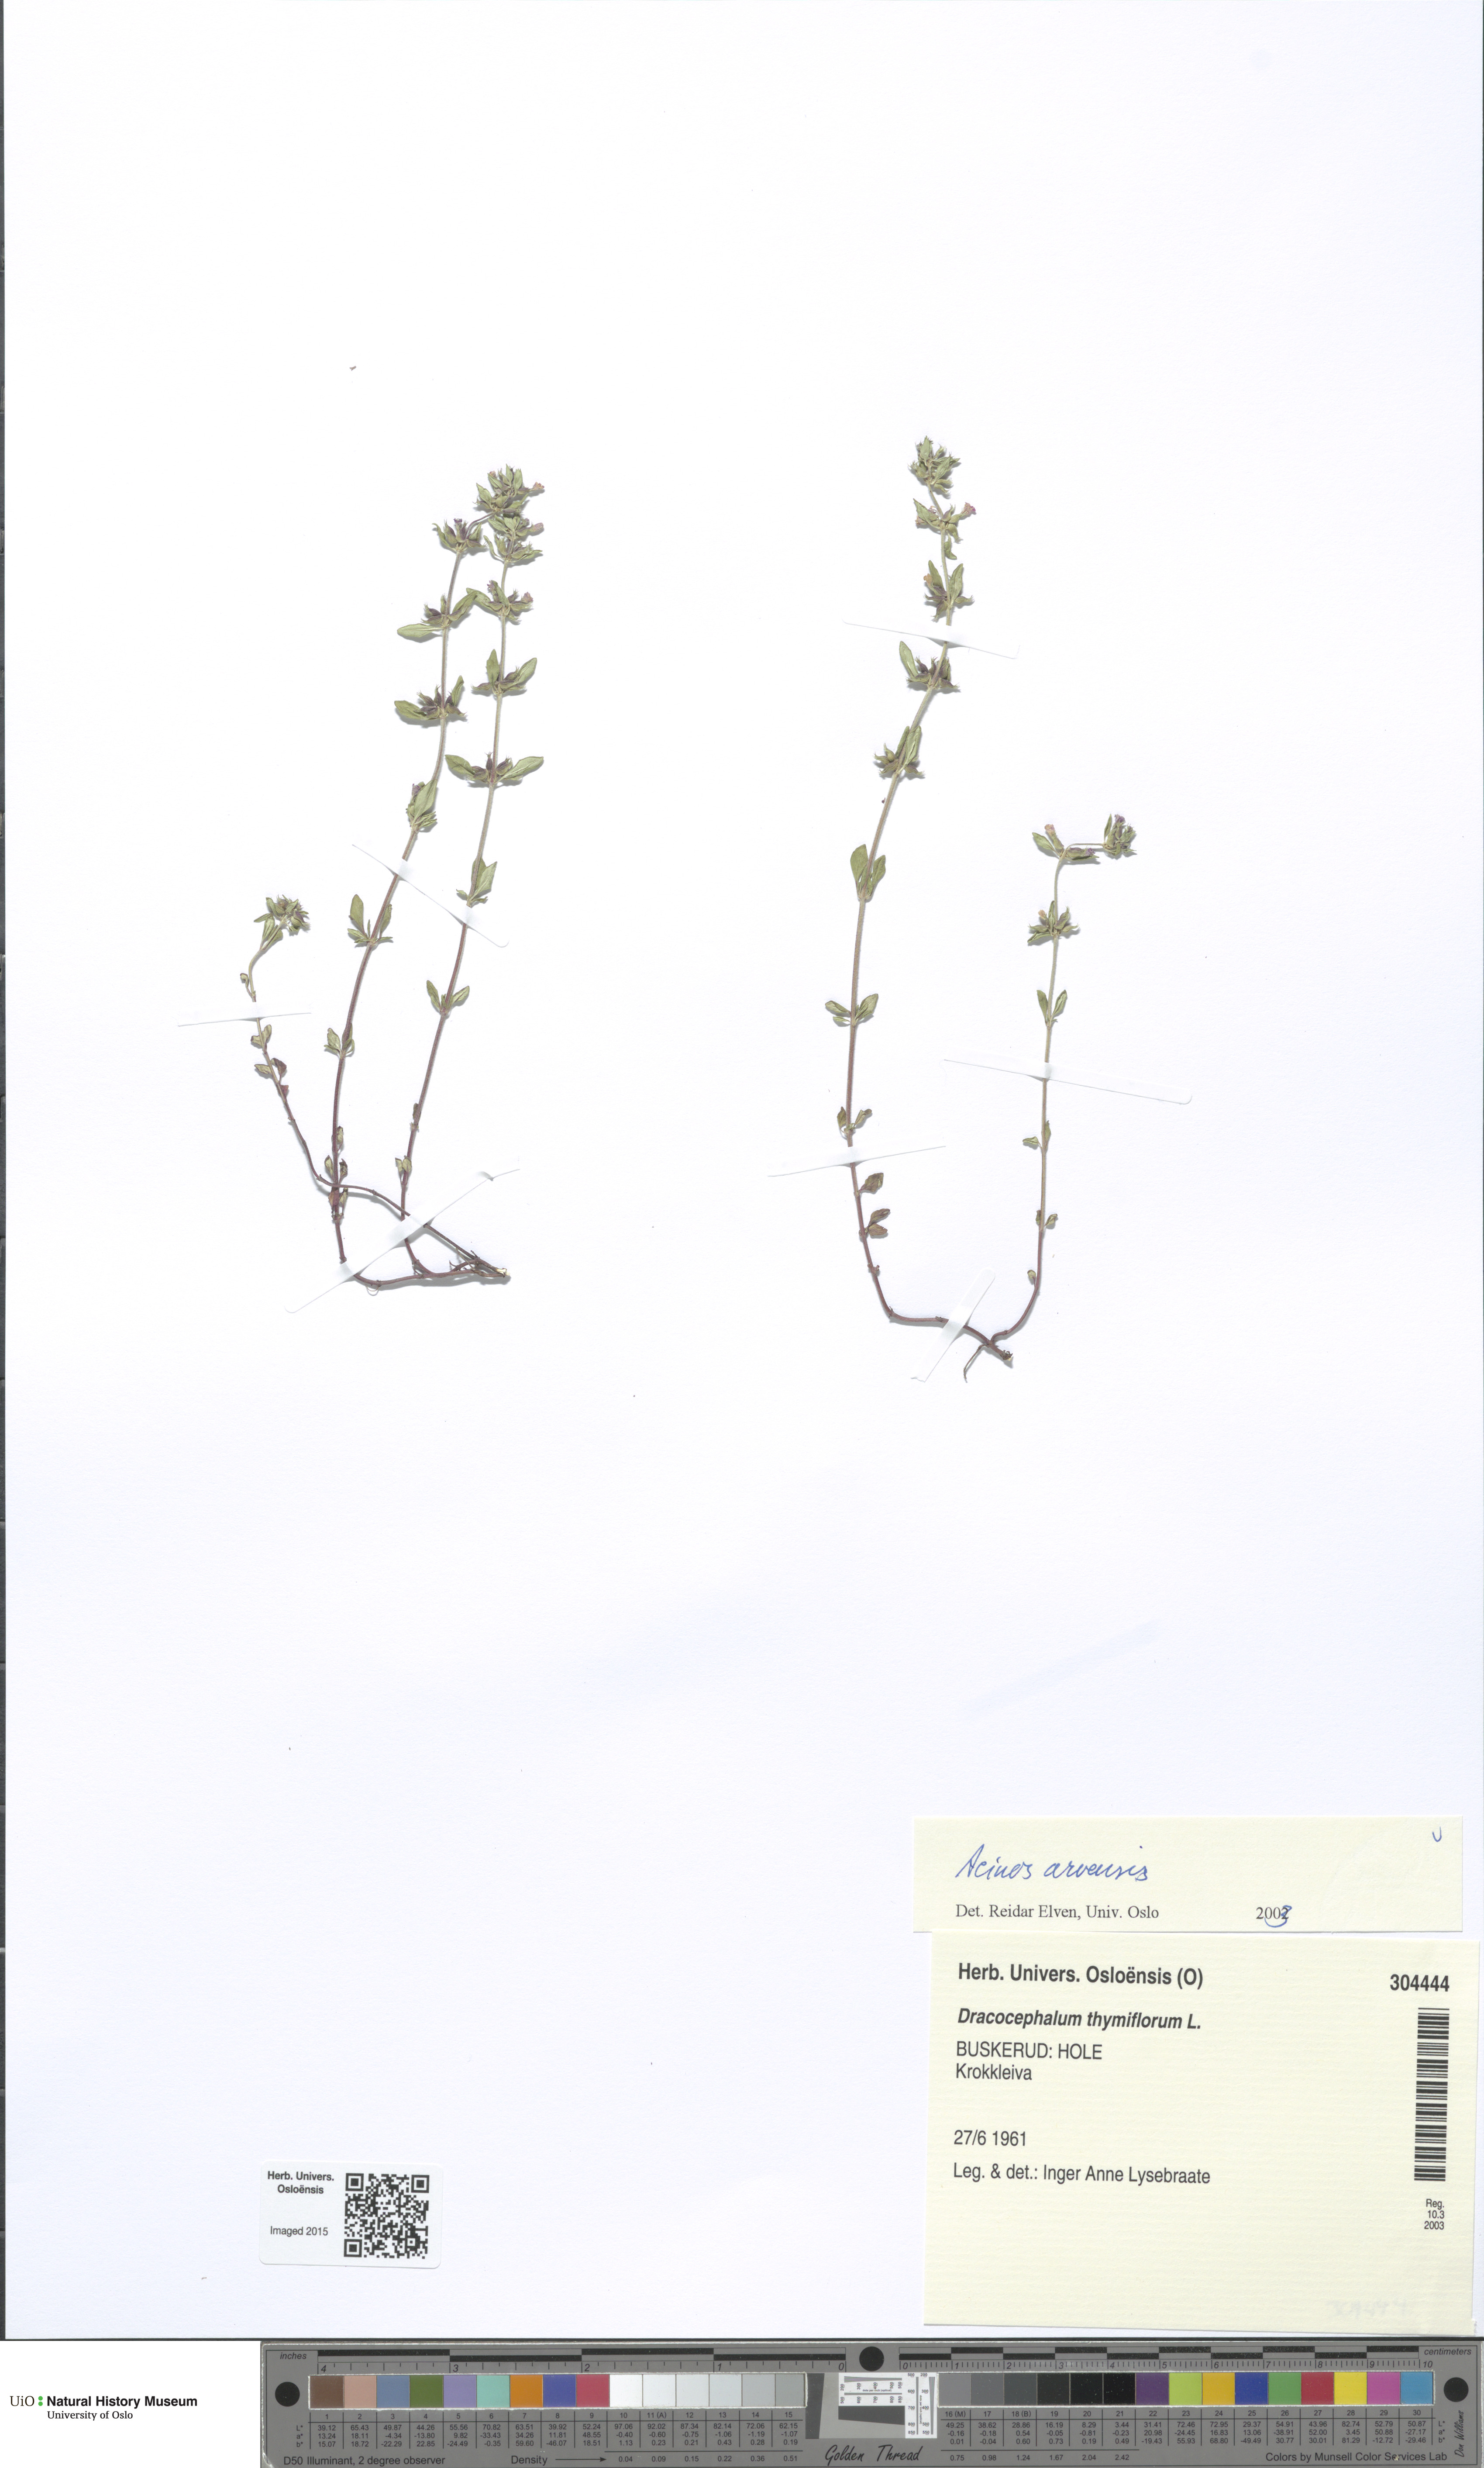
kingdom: Plantae
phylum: Tracheophyta
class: Magnoliopsida
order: Lamiales
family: Lamiaceae
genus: Clinopodium
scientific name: Clinopodium acinos
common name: Basil thyme
